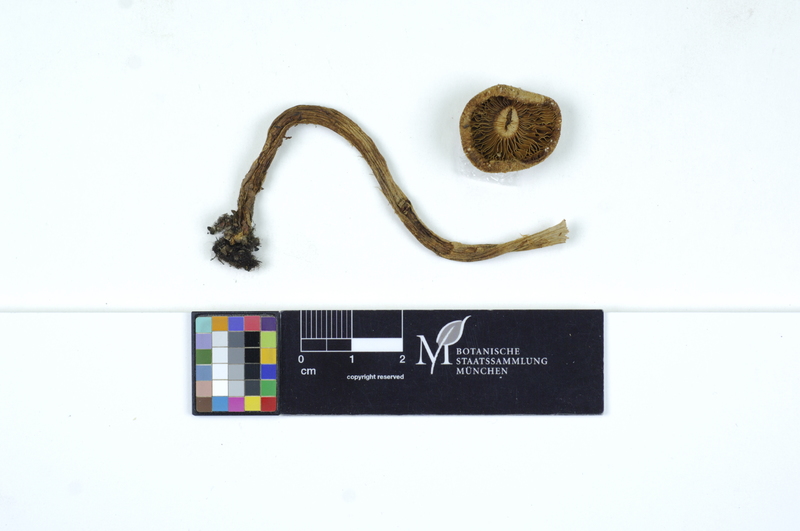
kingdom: Fungi
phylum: Basidiomycota
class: Agaricomycetes
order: Agaricales
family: Inocybaceae
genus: Inosperma
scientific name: Inosperma bongardii
